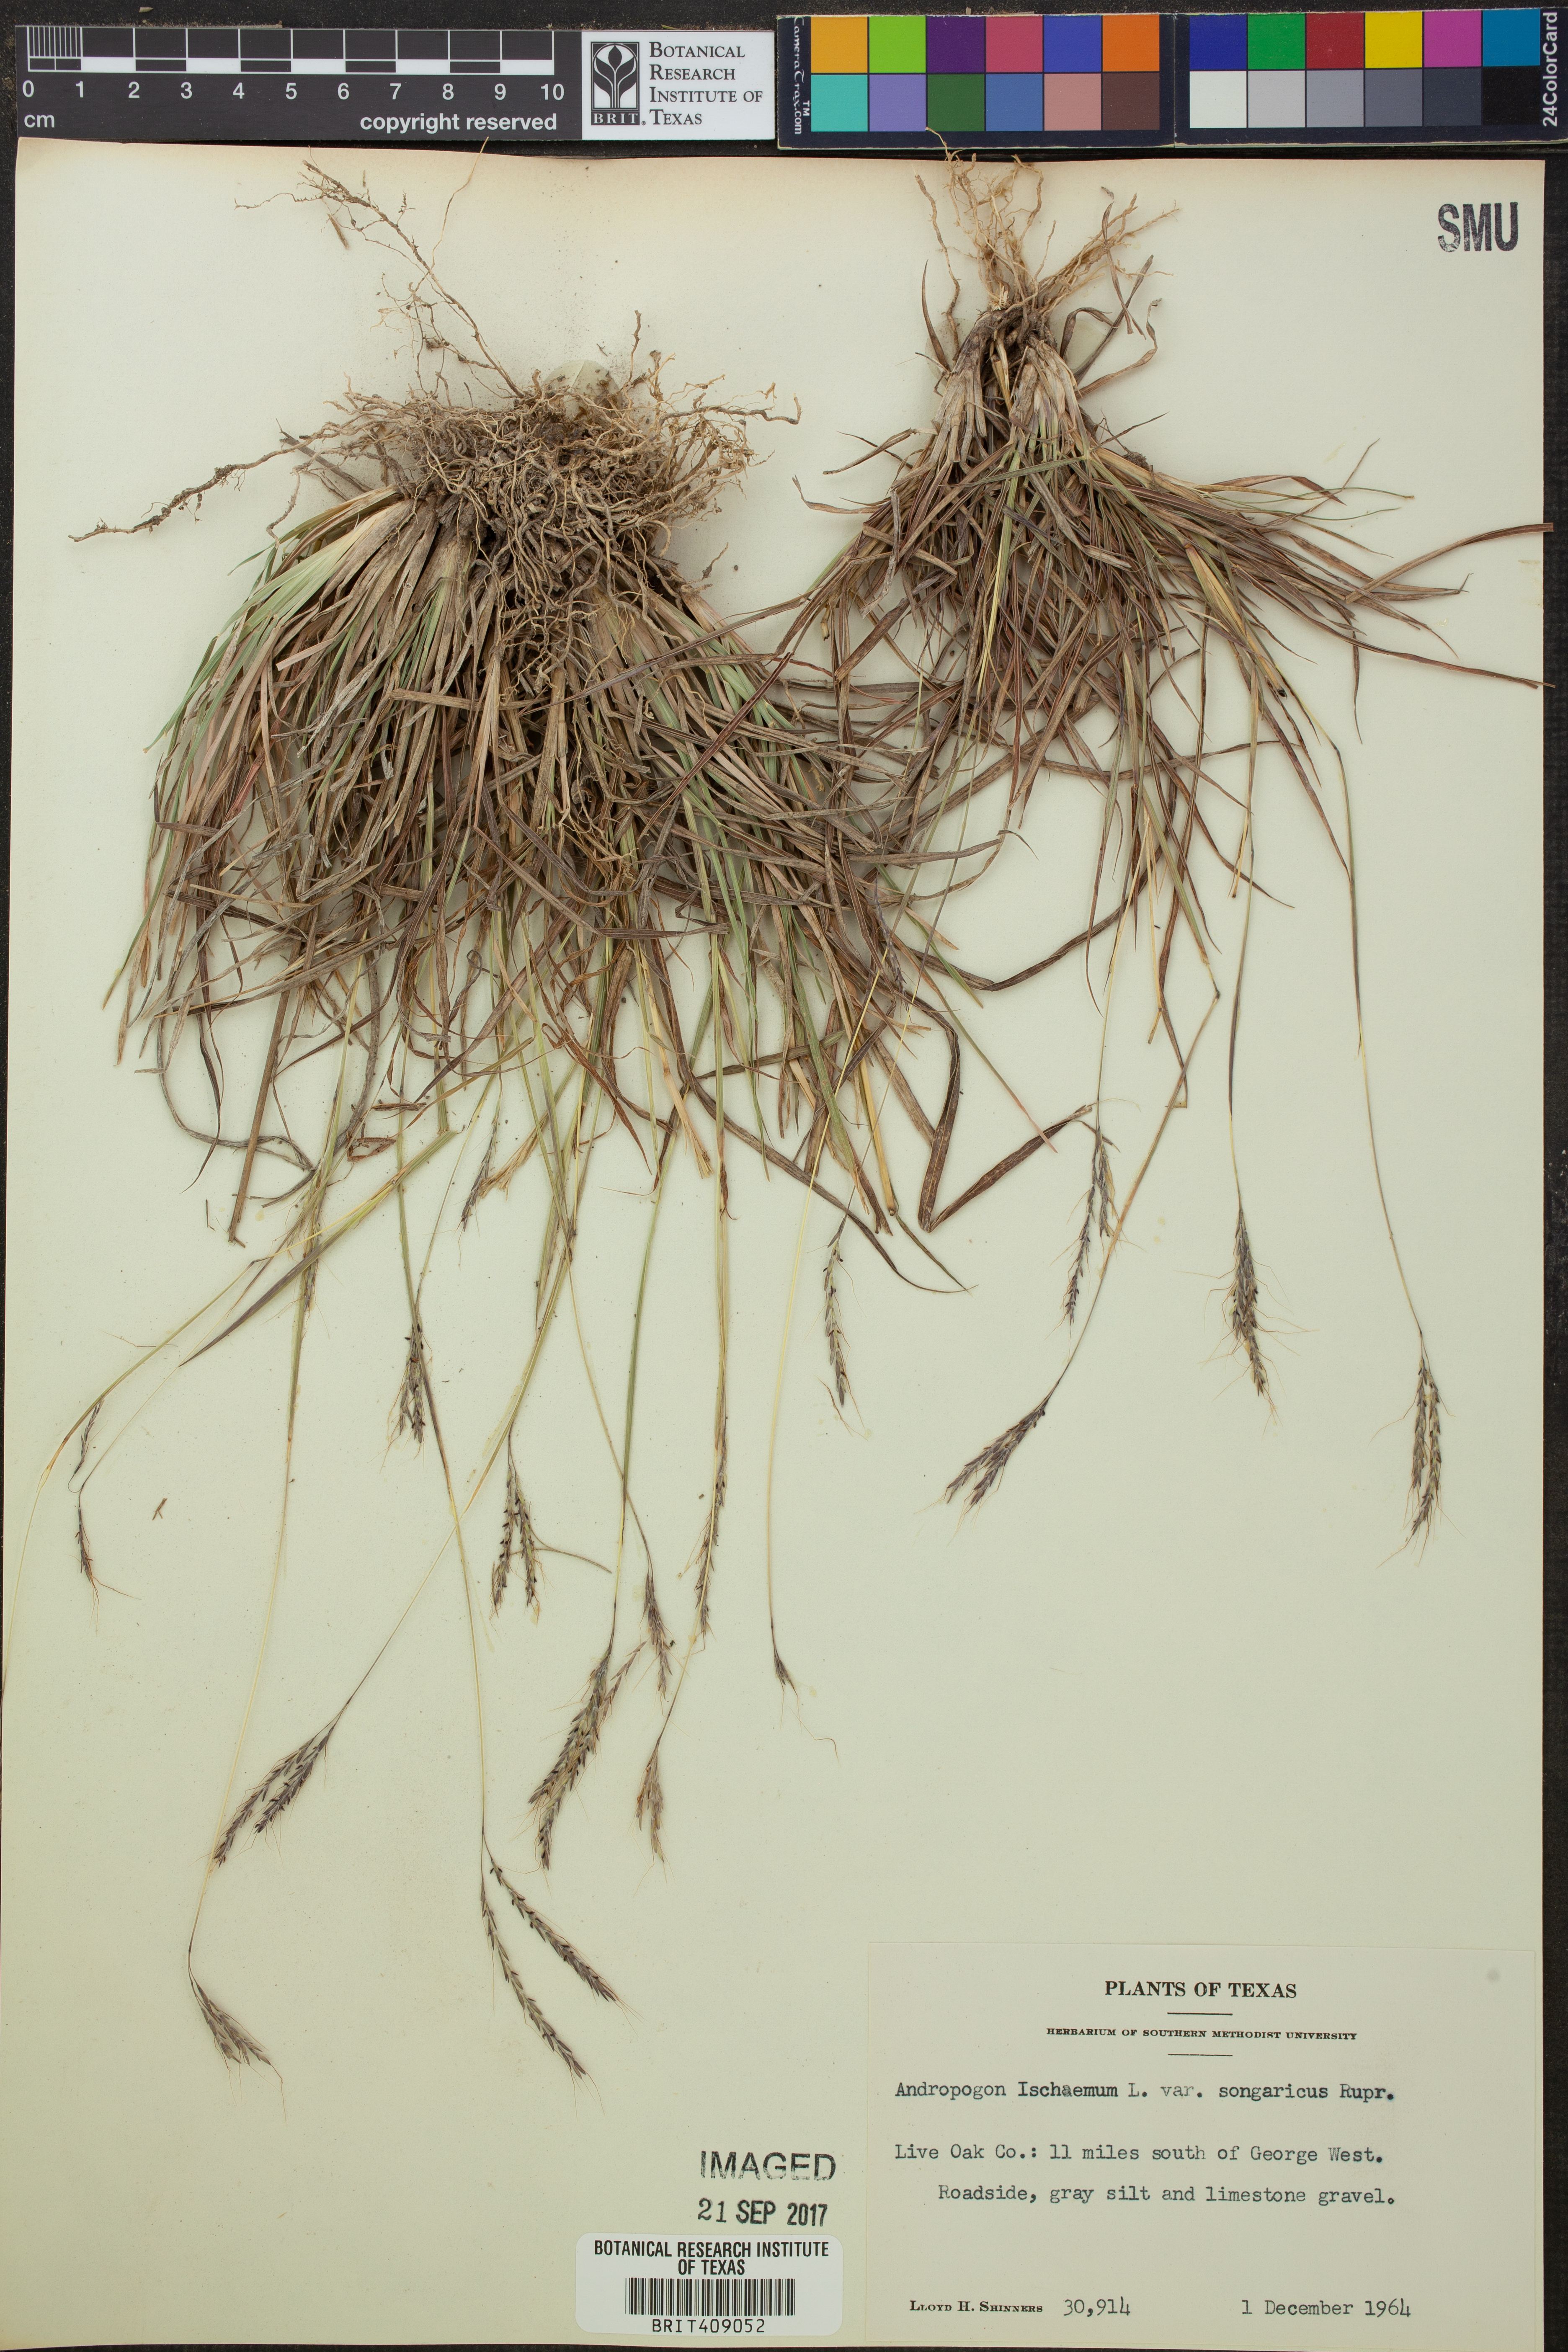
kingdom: Plantae
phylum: Tracheophyta
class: Liliopsida
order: Poales
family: Poaceae
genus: Bothriochloa
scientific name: Bothriochloa ischaemum
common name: Yellow bluestem
